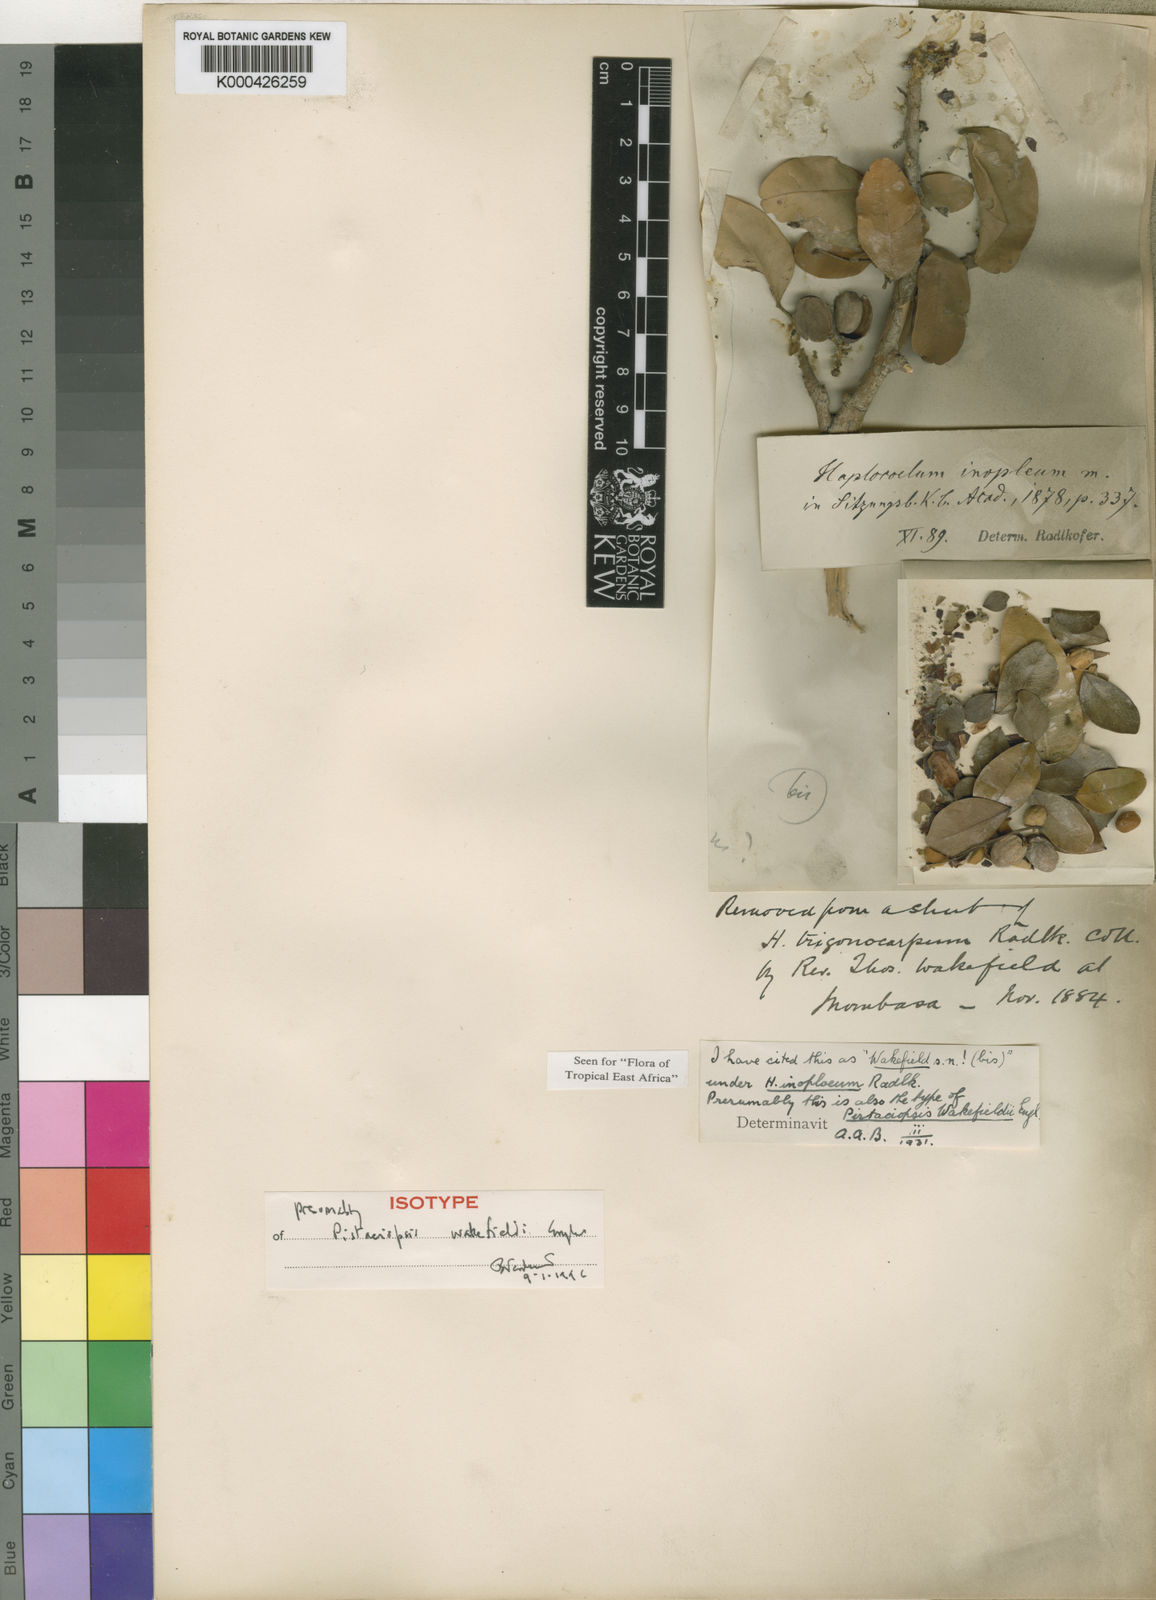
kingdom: Plantae
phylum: Tracheophyta
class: Magnoliopsida
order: Sapindales
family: Sapindaceae
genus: Haplocoelum
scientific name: Haplocoelum
